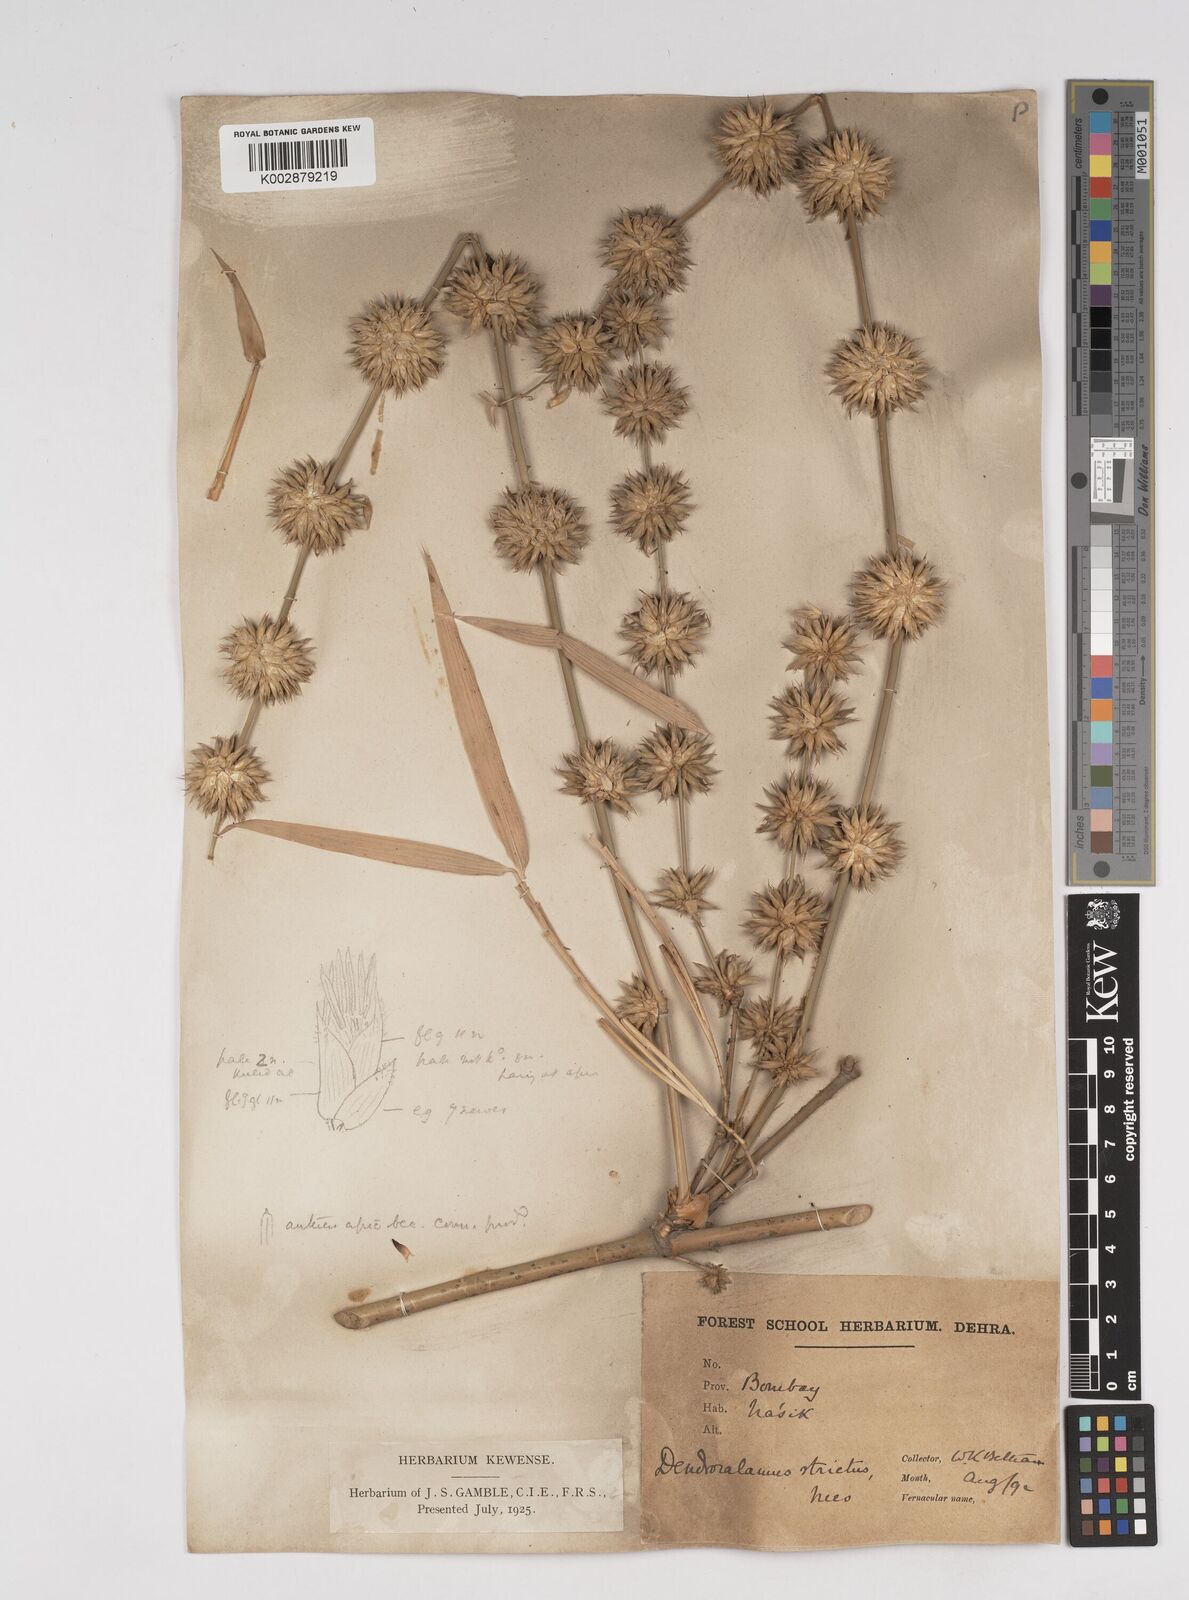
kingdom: Plantae
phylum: Tracheophyta
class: Liliopsida
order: Poales
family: Poaceae
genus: Dendrocalamus
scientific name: Dendrocalamus strictus
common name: Male bamboo
